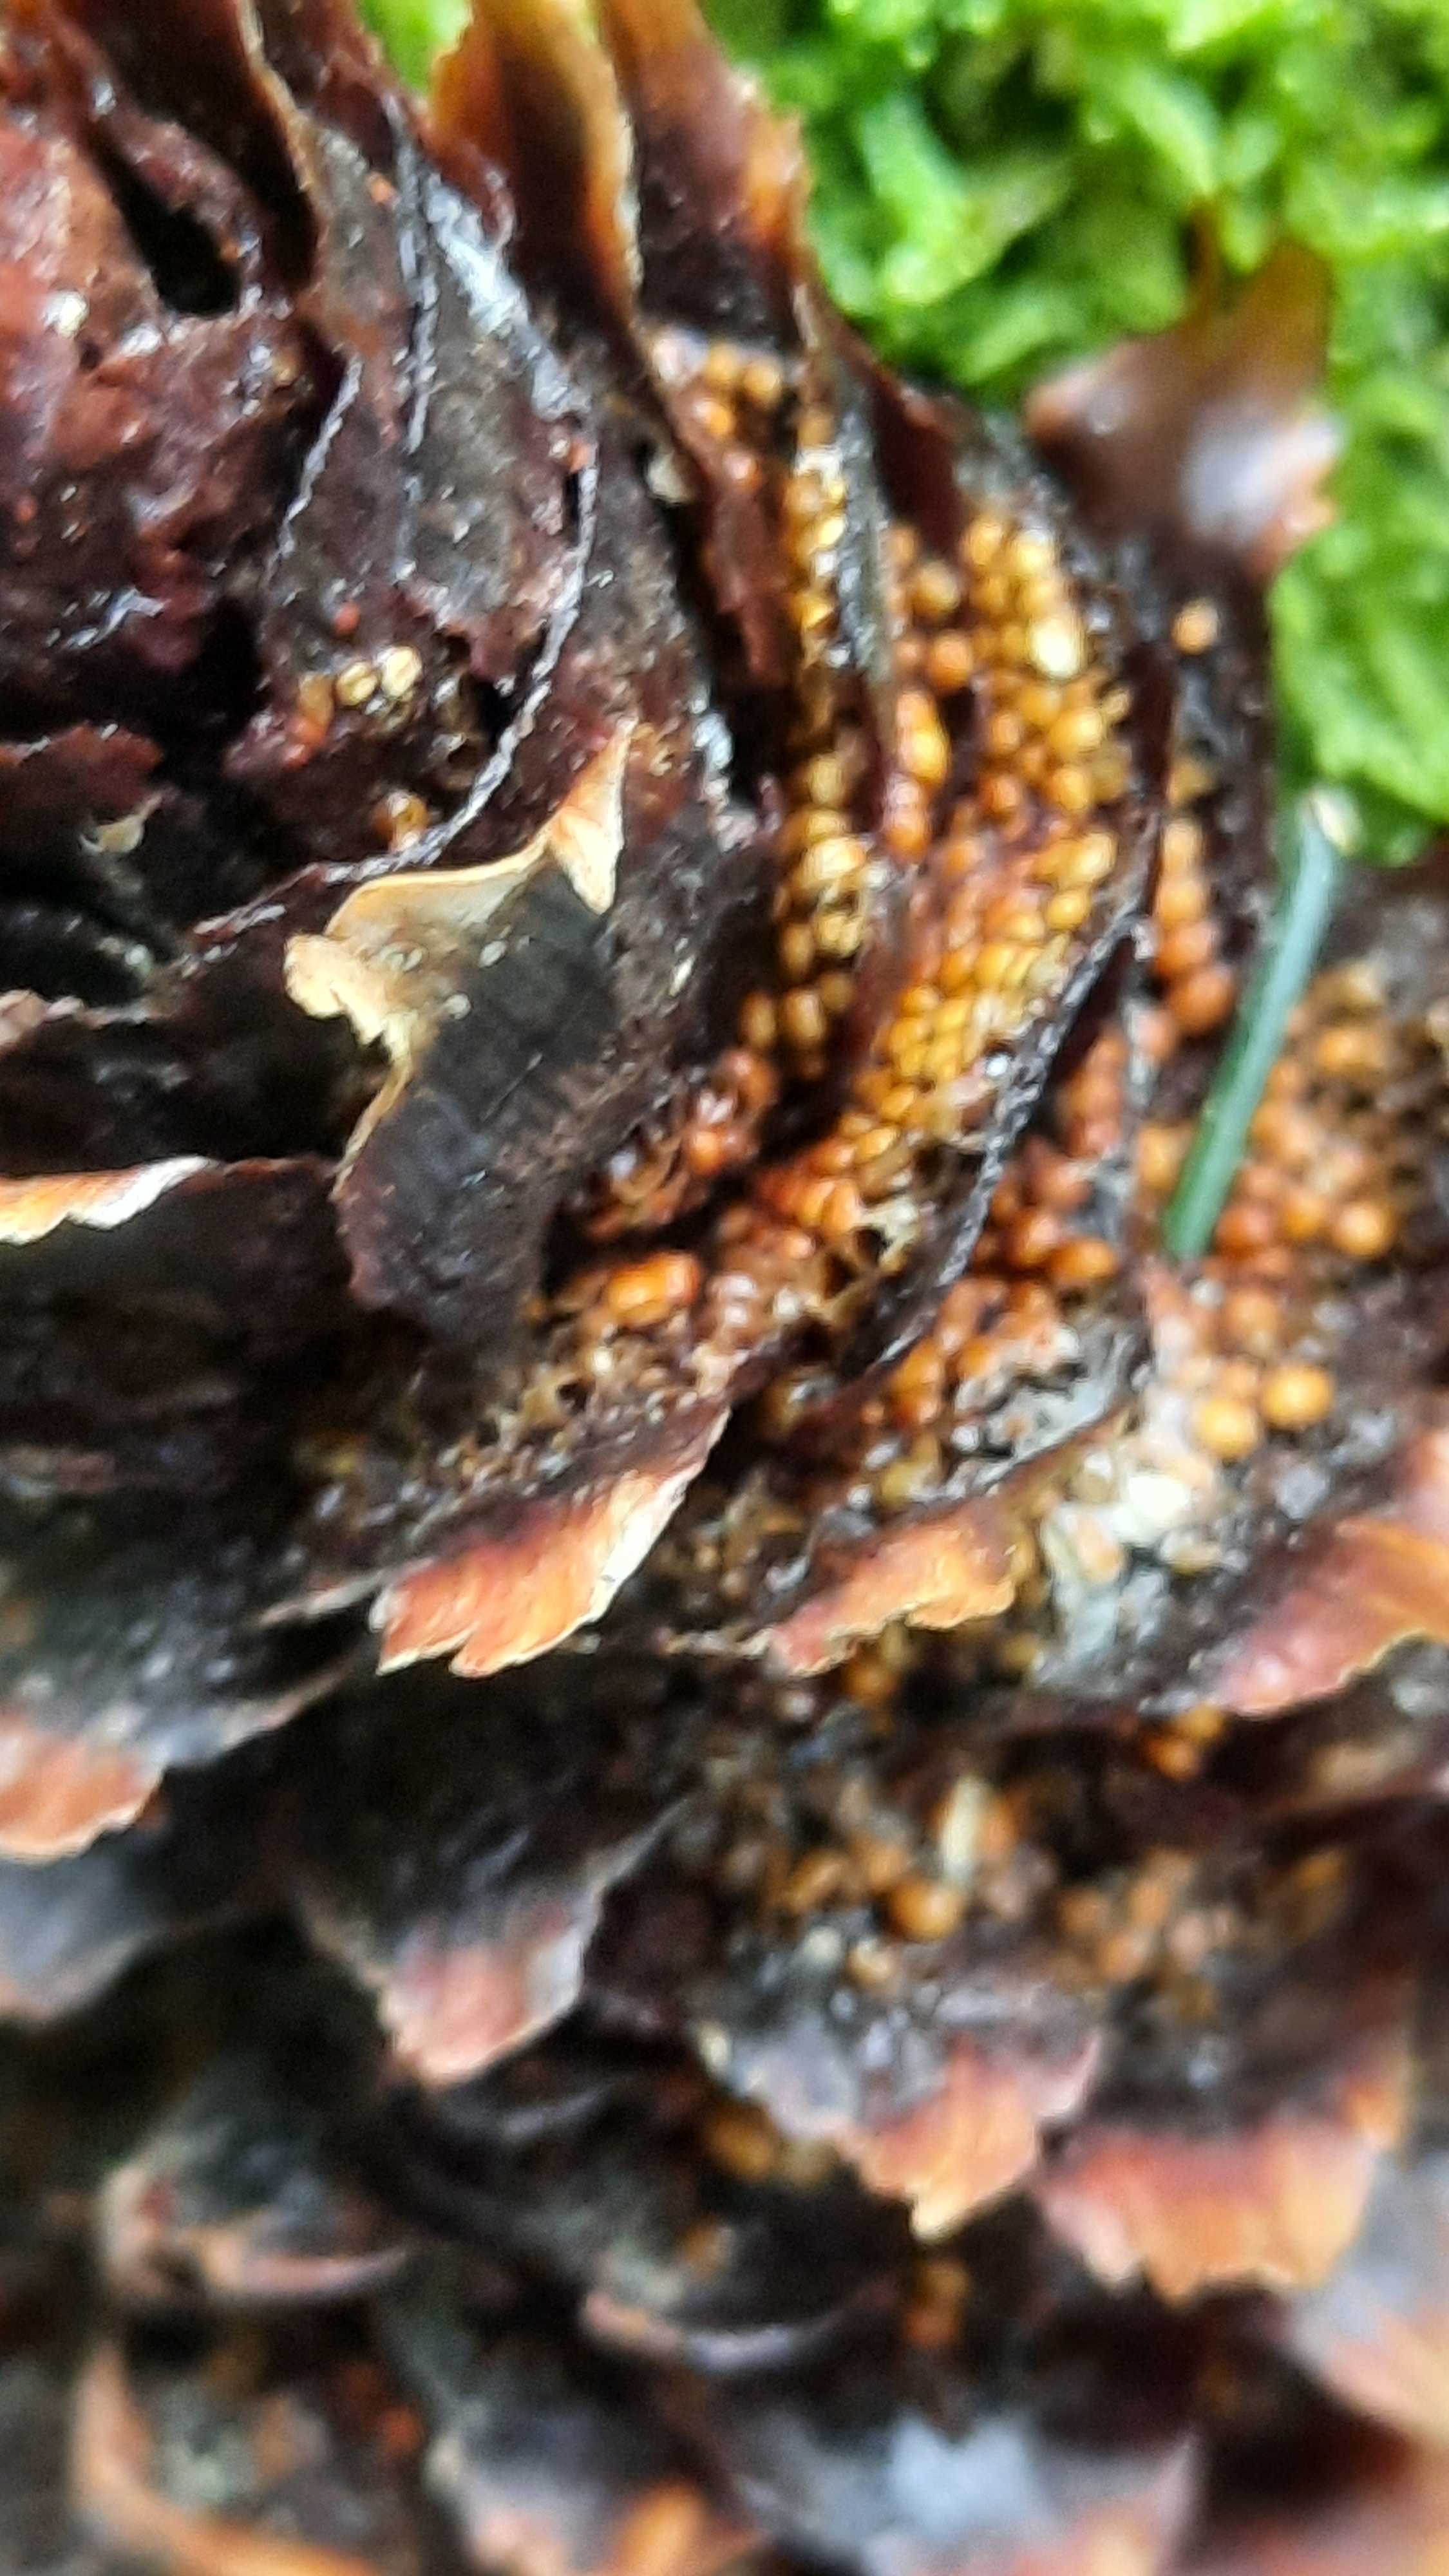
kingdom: Fungi
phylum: Basidiomycota
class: Pucciniomycetes
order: Pucciniales
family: Pucciniastraceae
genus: Thekopsora
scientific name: Thekopsora areolata
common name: grankogle-nålerust
